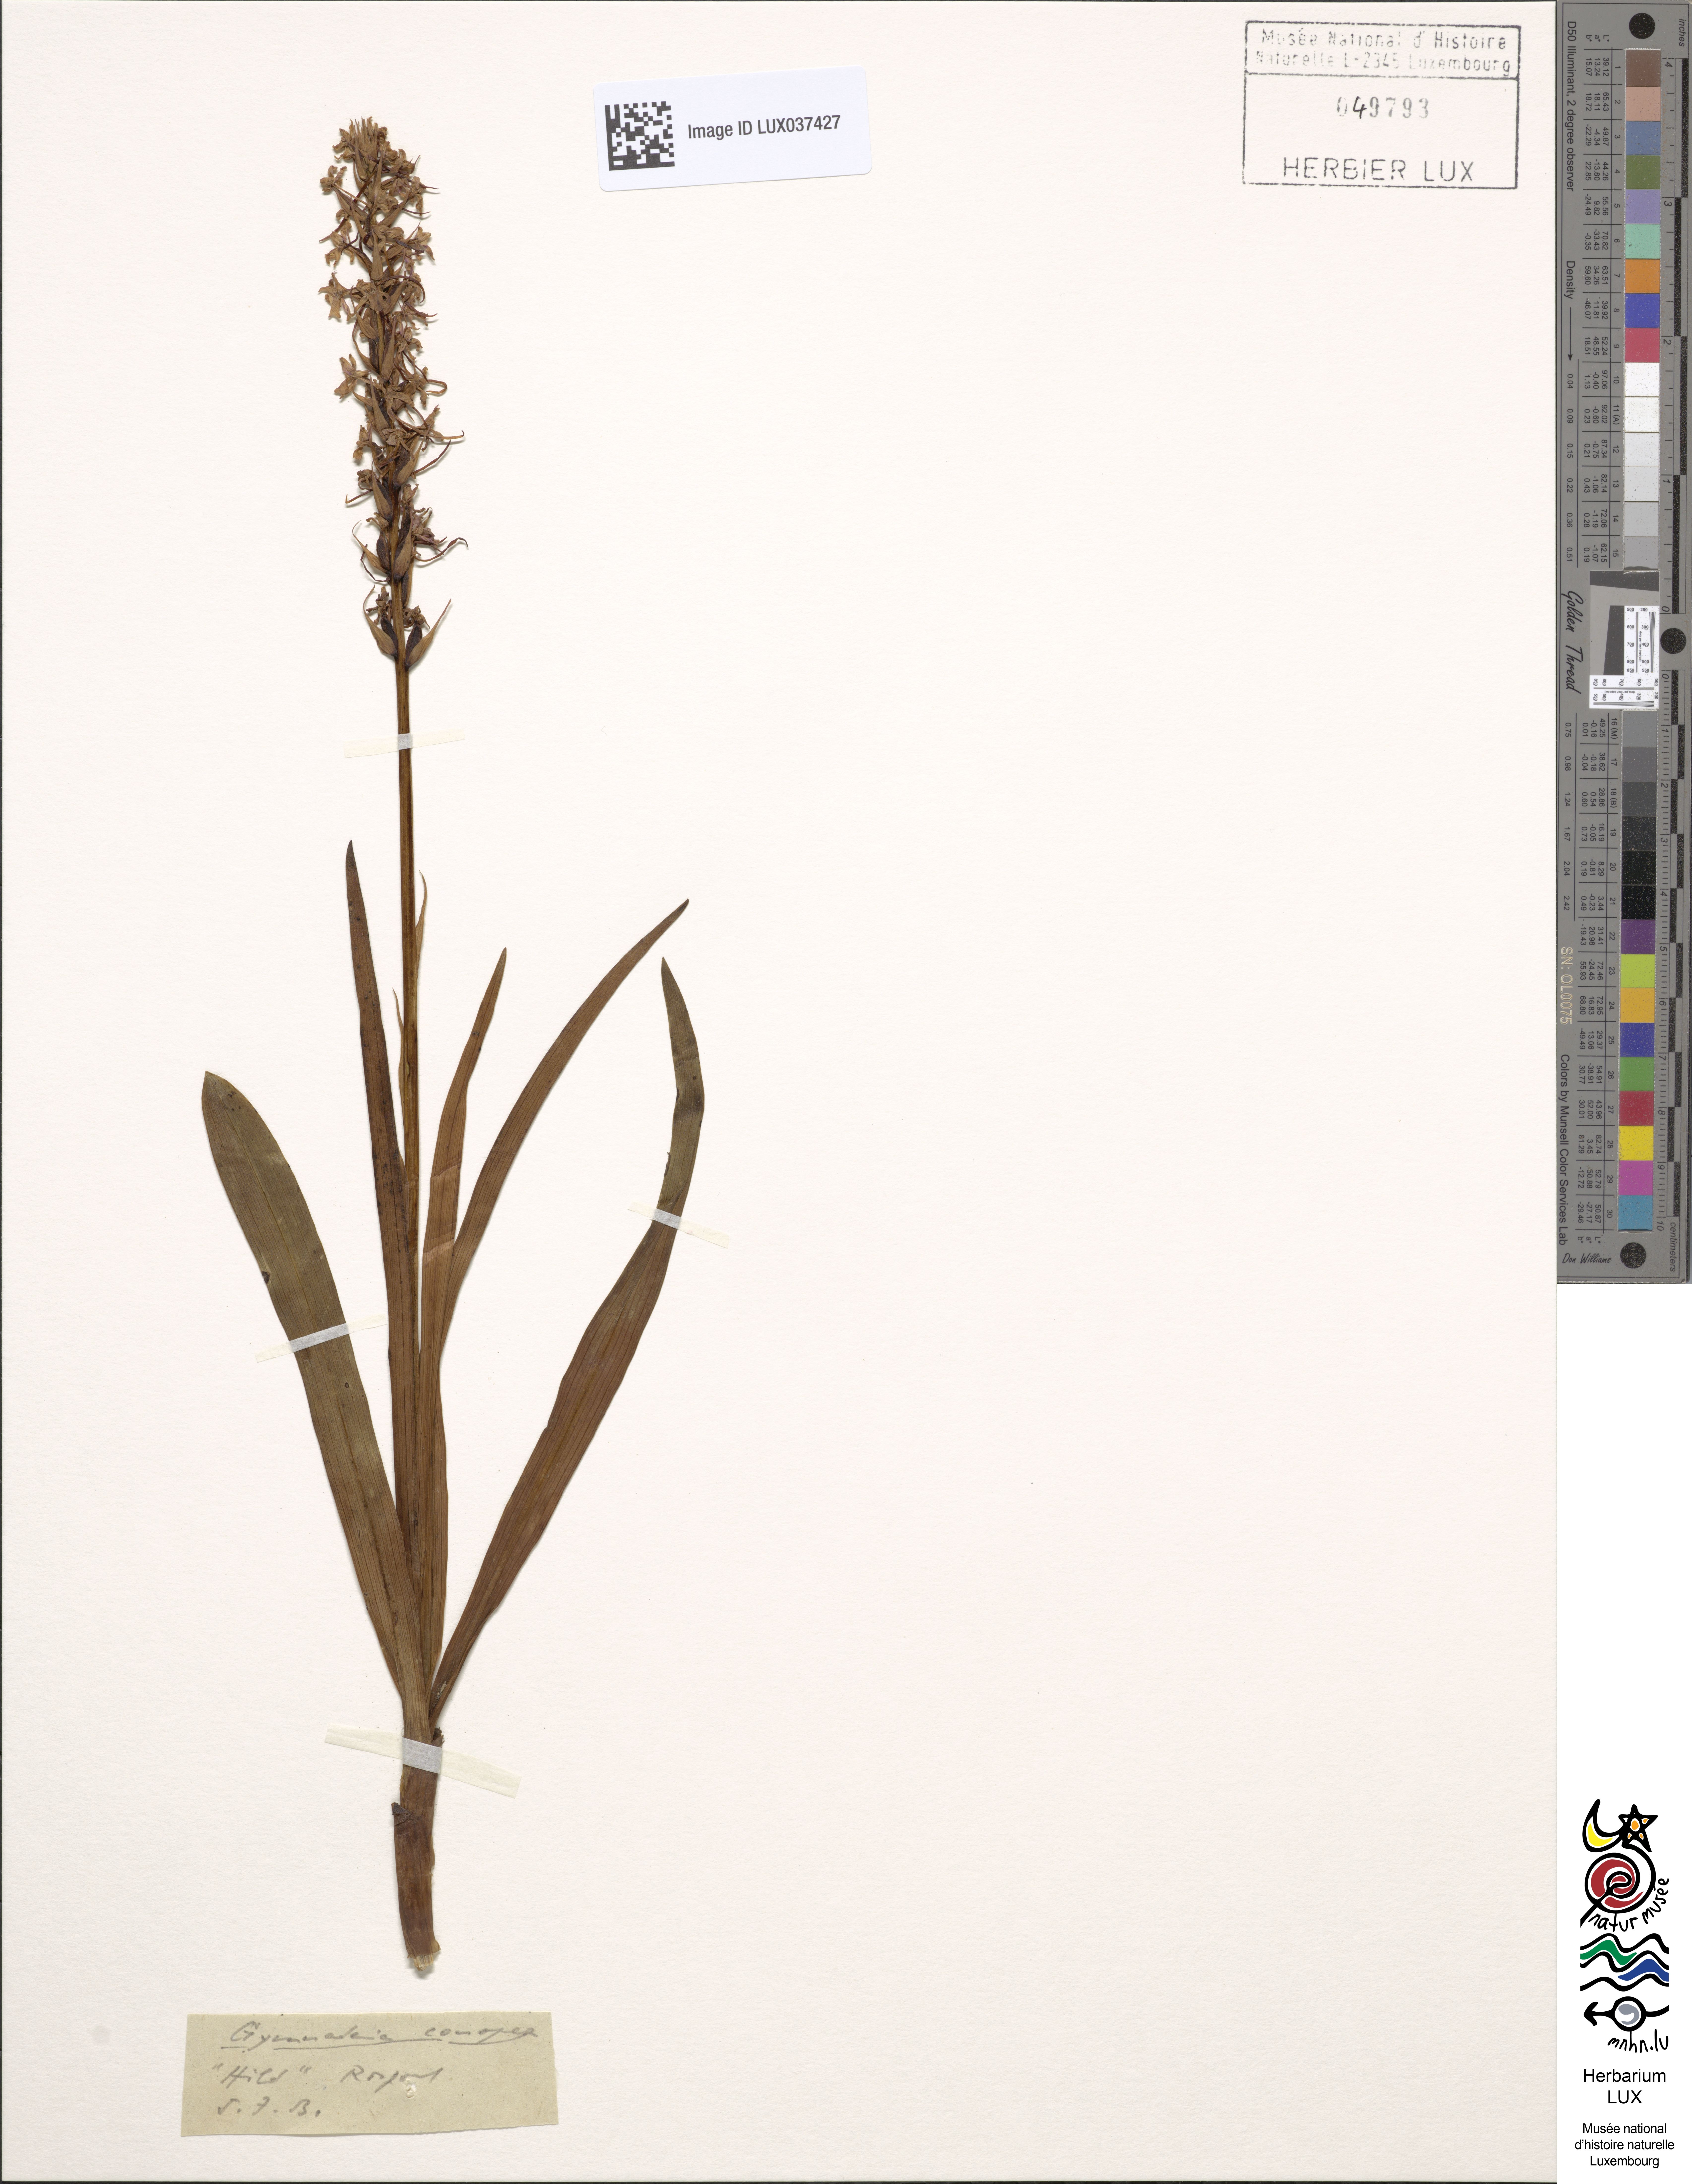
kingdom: Plantae
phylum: Tracheophyta
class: Liliopsida
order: Asparagales
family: Orchidaceae
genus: Gymnadenia
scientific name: Gymnadenia conopsea
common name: Fragrant orchid
